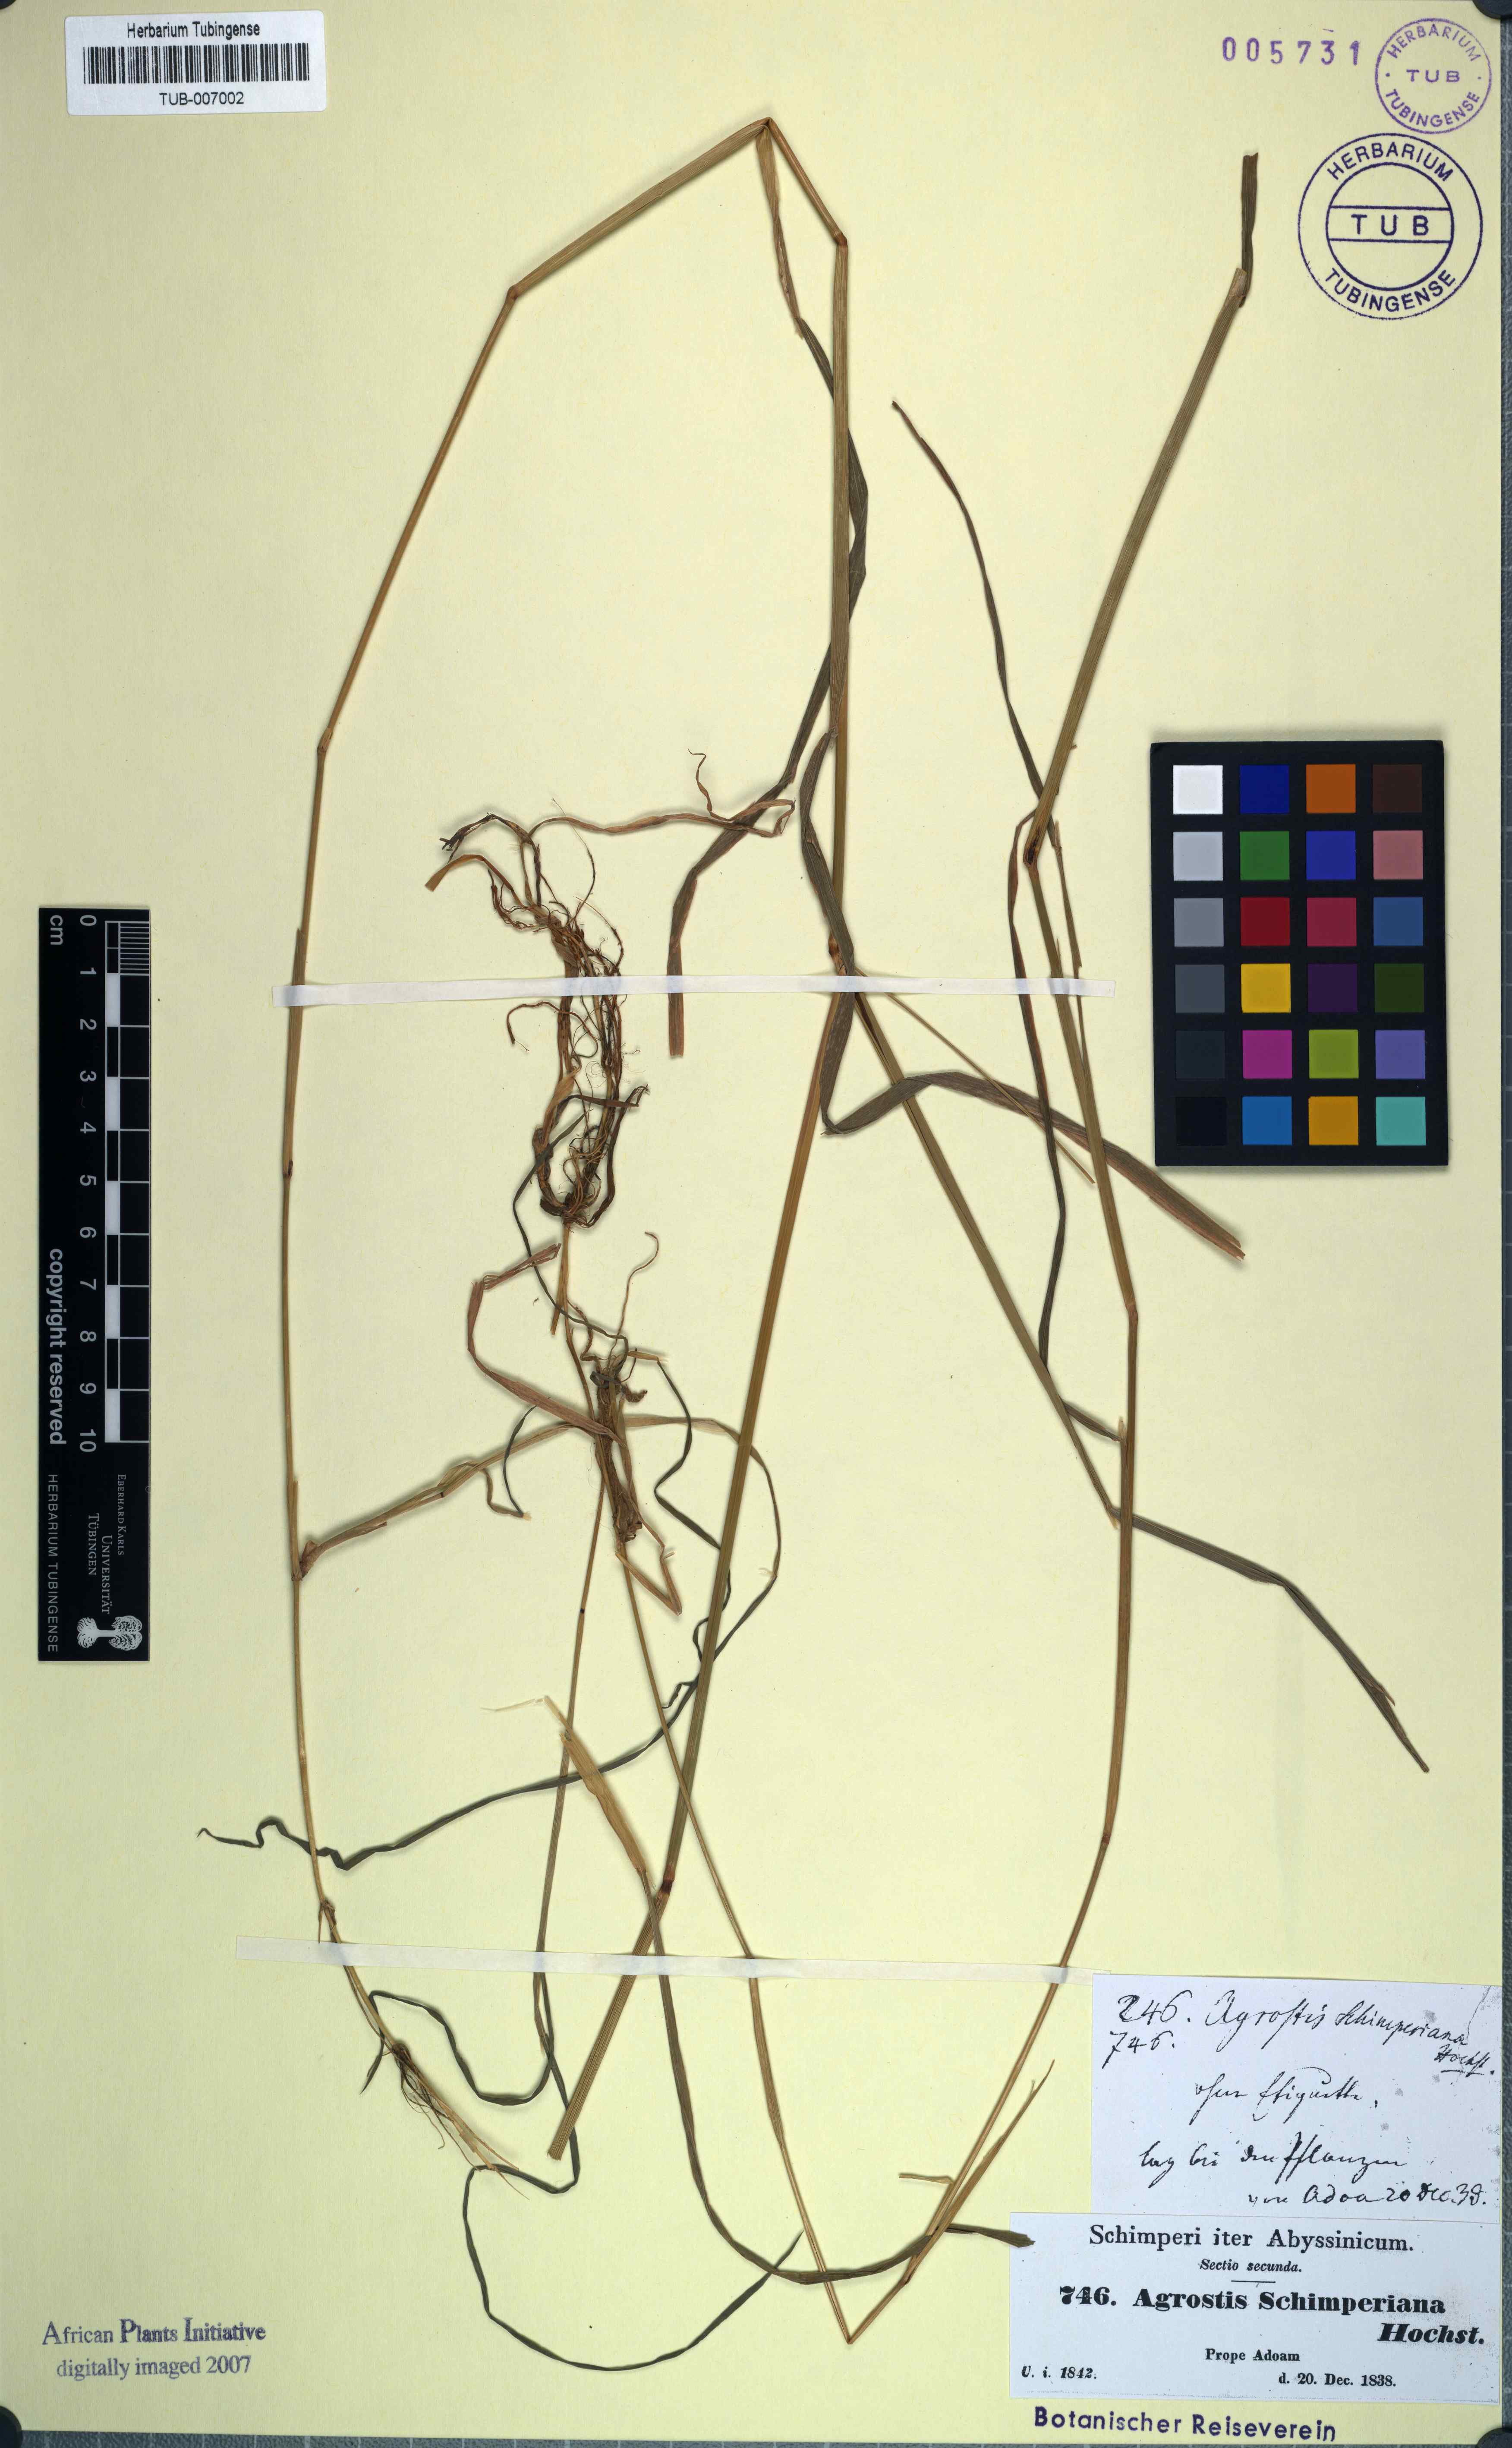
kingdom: Plantae
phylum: Tracheophyta
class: Liliopsida
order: Poales
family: Poaceae
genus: Polypogon
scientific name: Polypogon schimperianus
